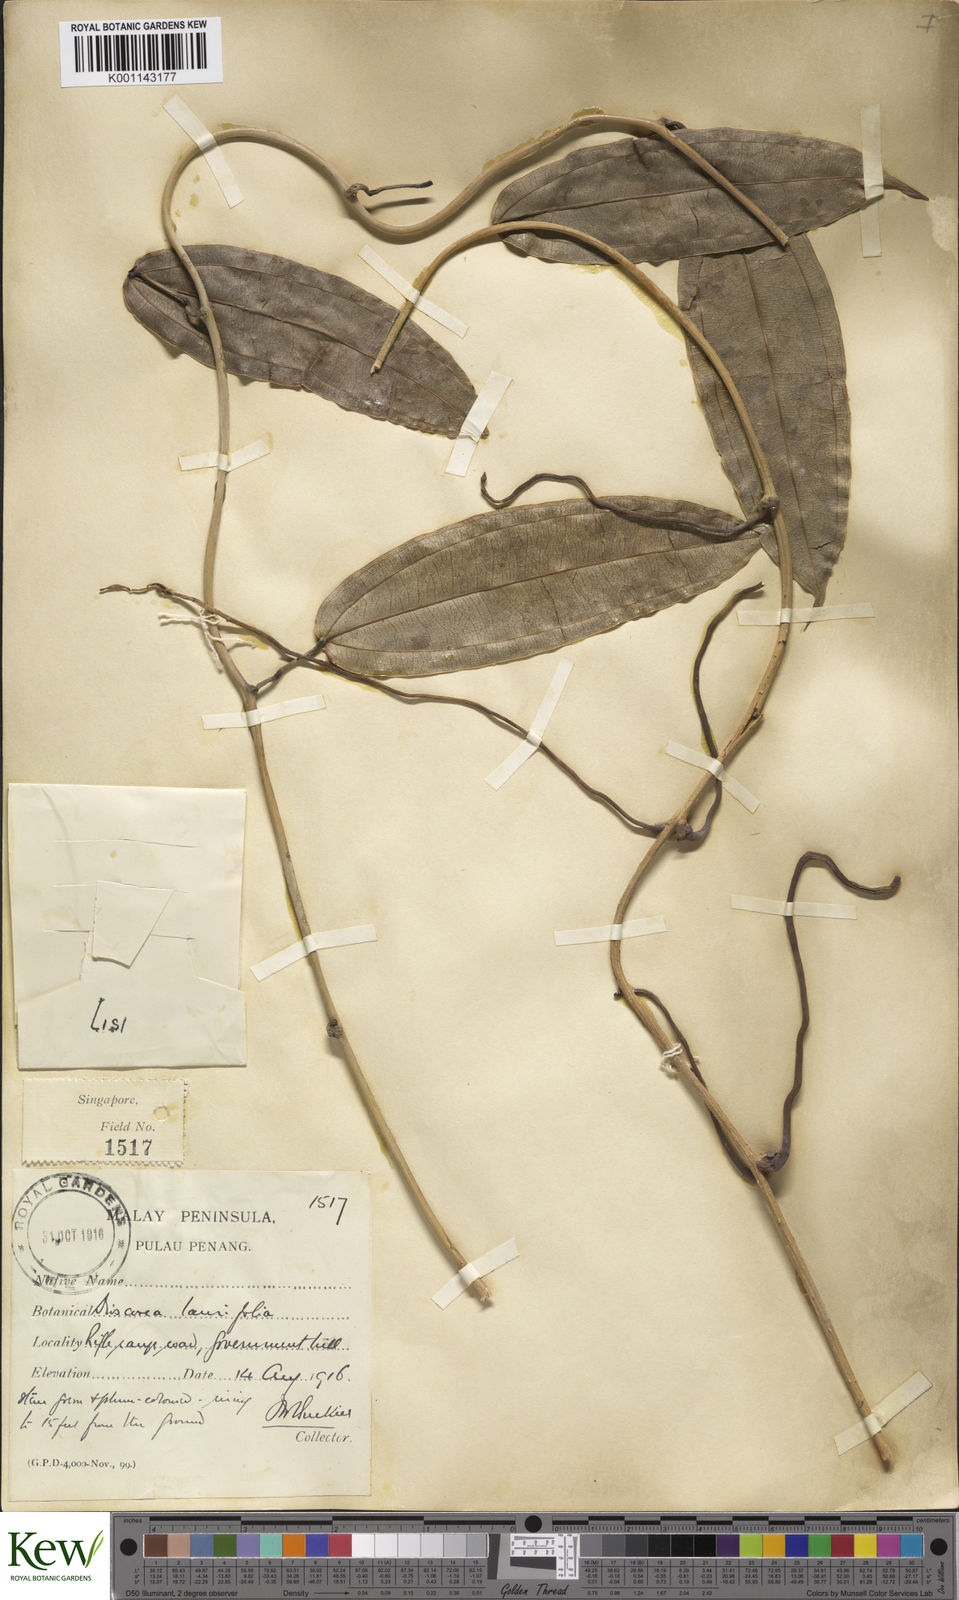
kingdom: Plantae
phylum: Tracheophyta
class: Liliopsida
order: Dioscoreales
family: Dioscoreaceae
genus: Dioscorea
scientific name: Dioscorea laurifolia
